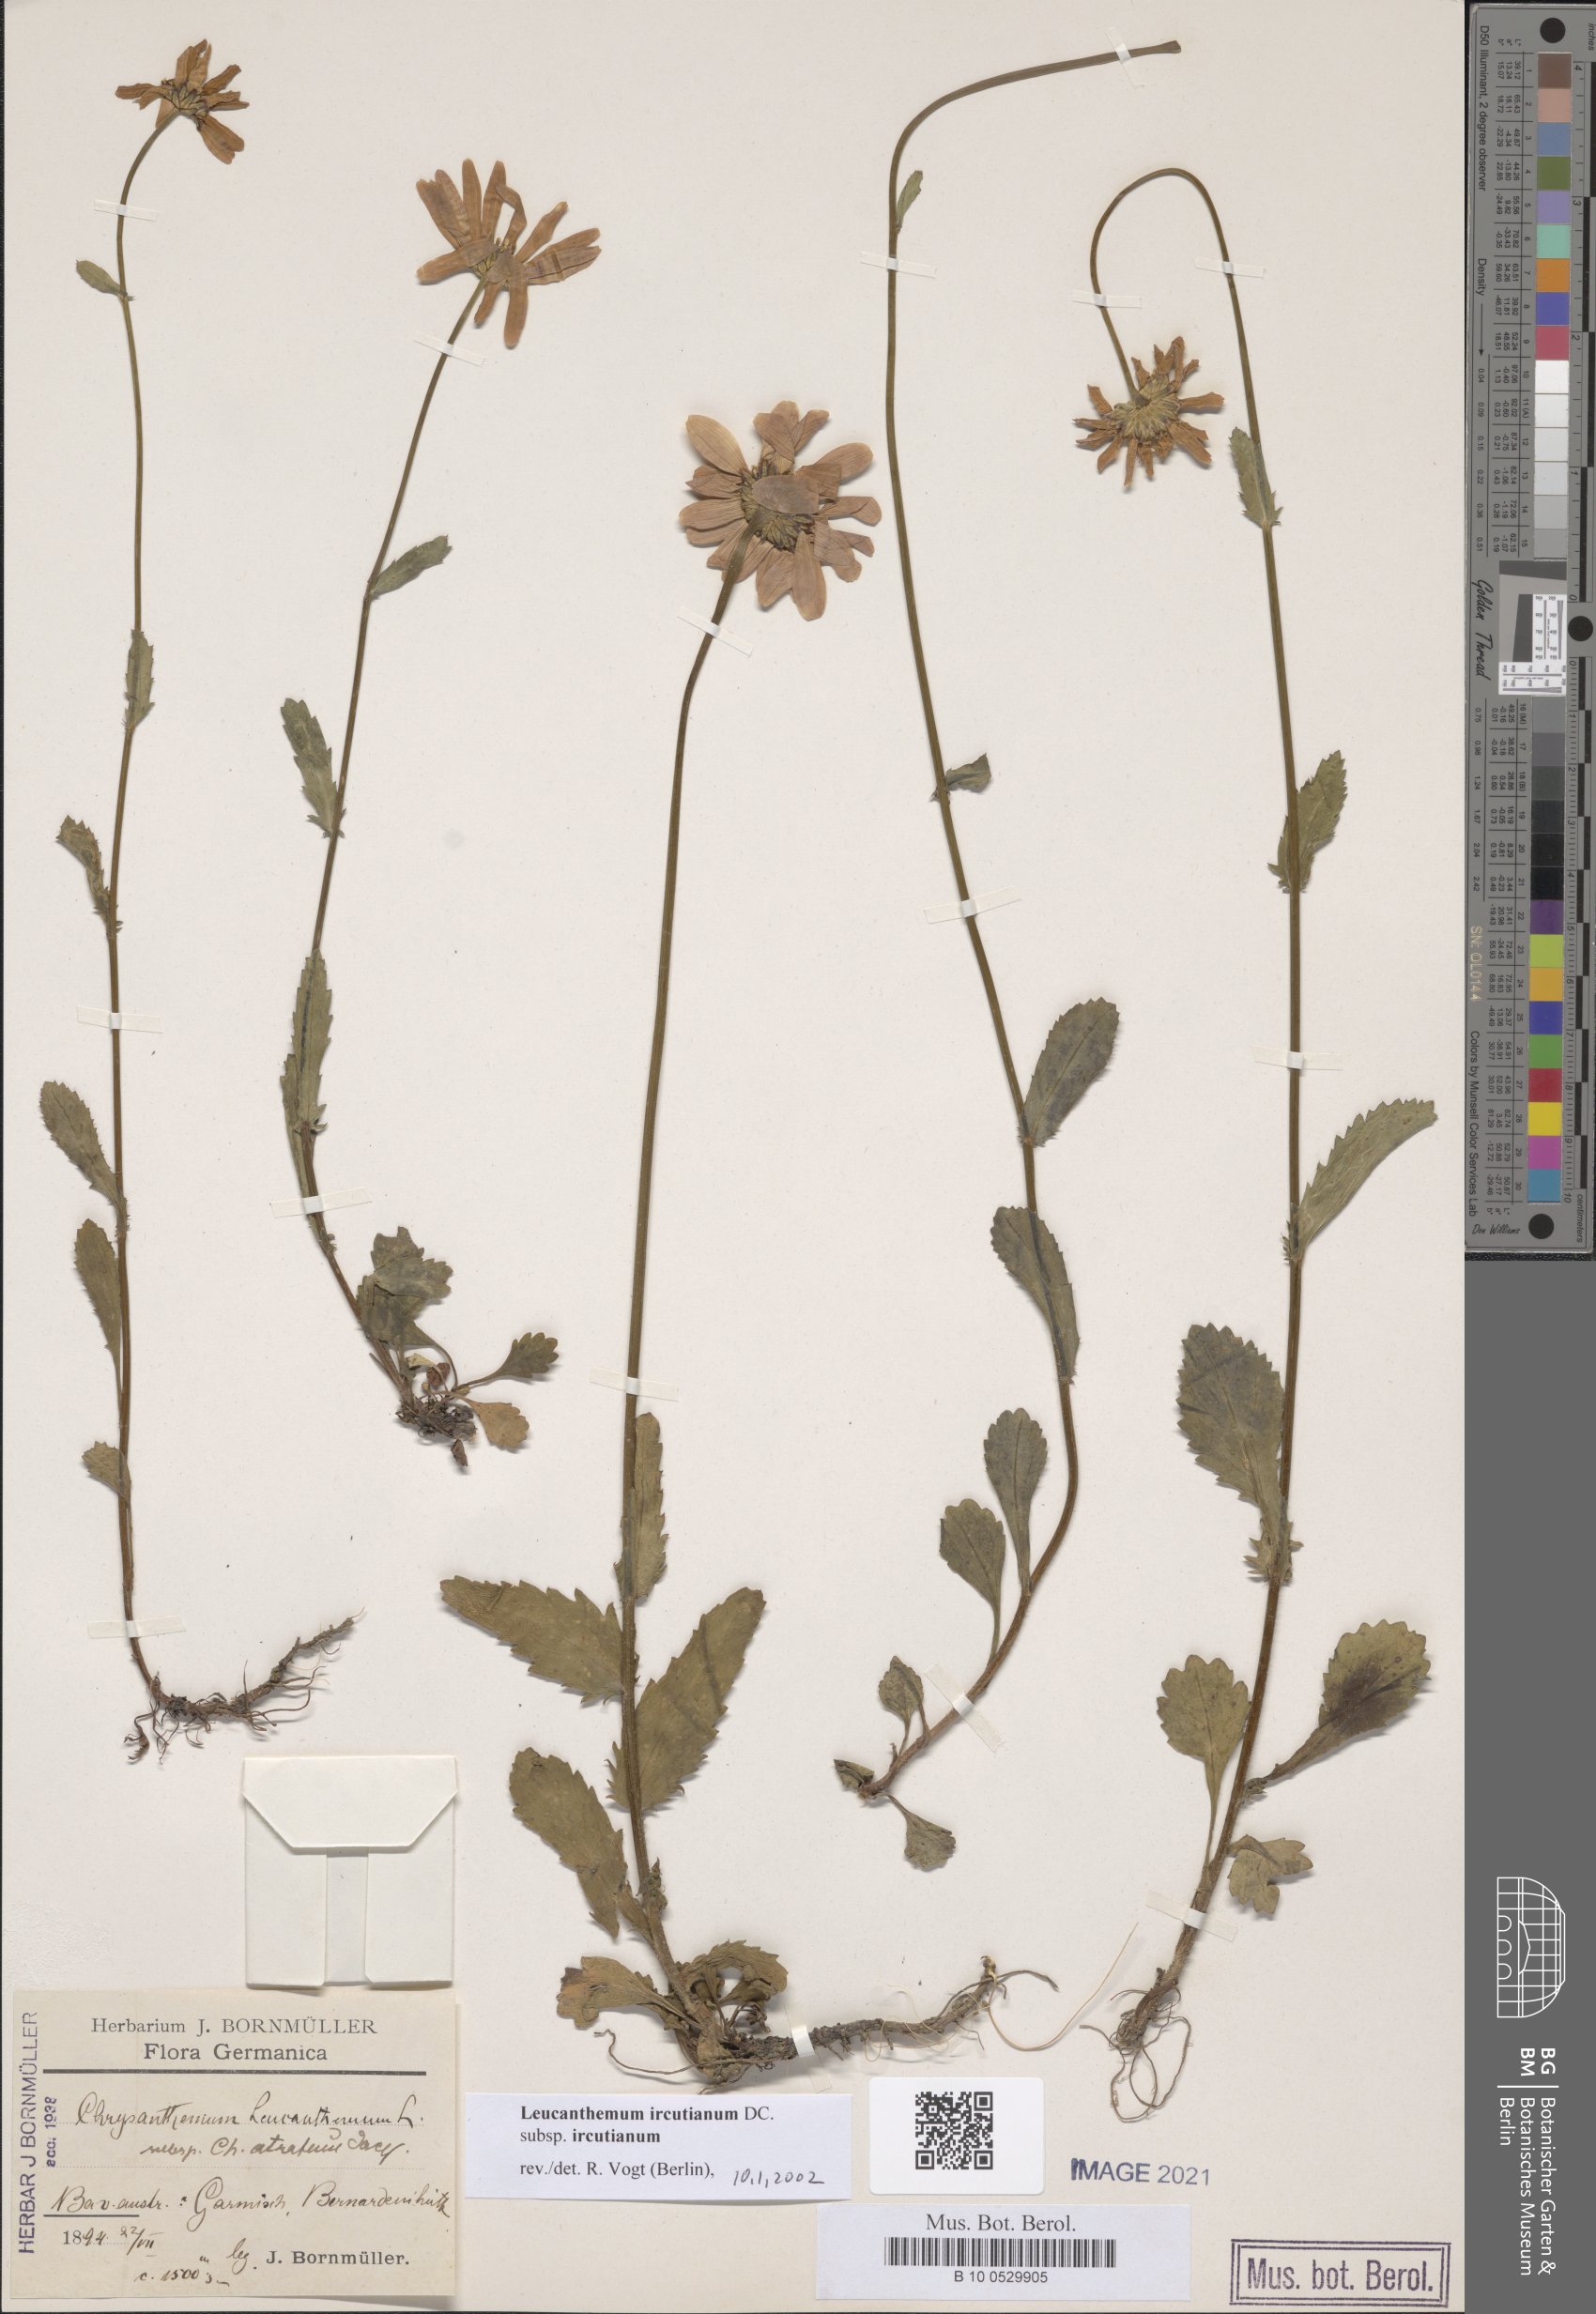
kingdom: Plantae
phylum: Tracheophyta
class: Magnoliopsida
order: Asterales
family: Asteraceae
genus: Leucanthemum
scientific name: Leucanthemum ircutianum
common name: Daisy
